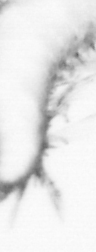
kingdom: Animalia
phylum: Annelida
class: Polychaeta
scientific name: Polychaeta
